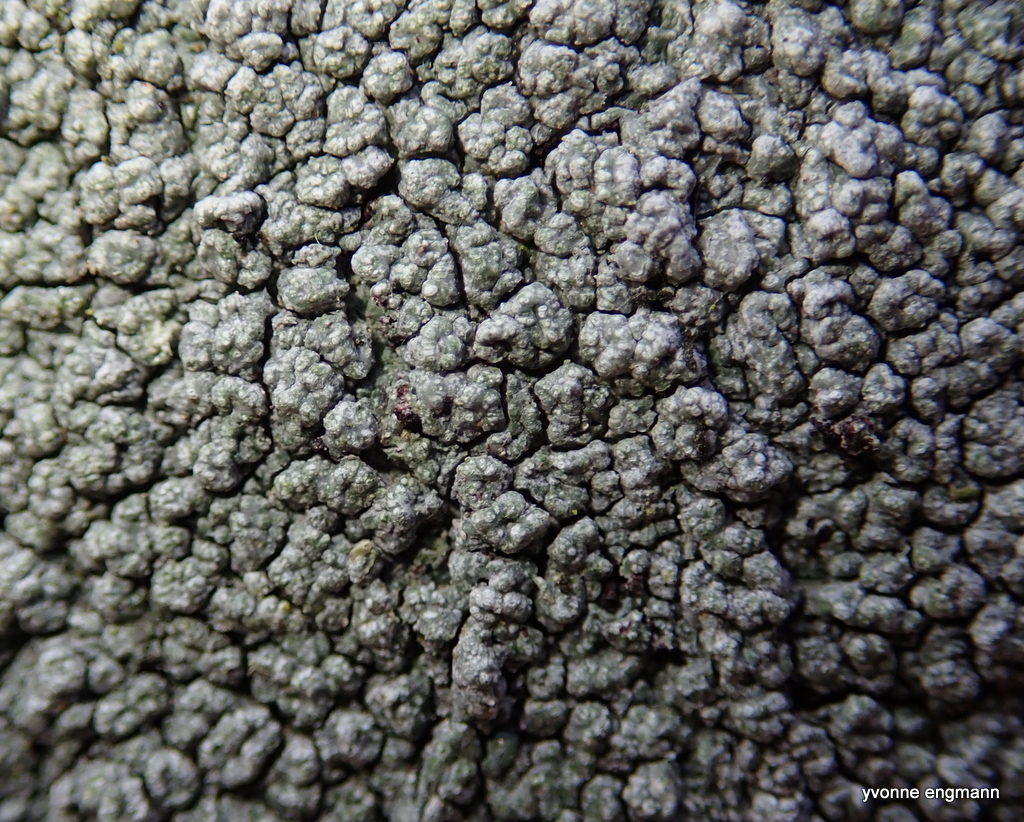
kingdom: Fungi
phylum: Ascomycota
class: Lecanoromycetes
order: Pertusariales
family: Pertusariaceae
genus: Pertusaria
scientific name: Pertusaria hymenea
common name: åben prikvortelav
